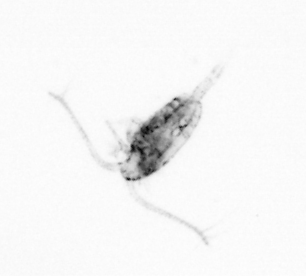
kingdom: Animalia
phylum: Arthropoda
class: Copepoda
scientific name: Copepoda
